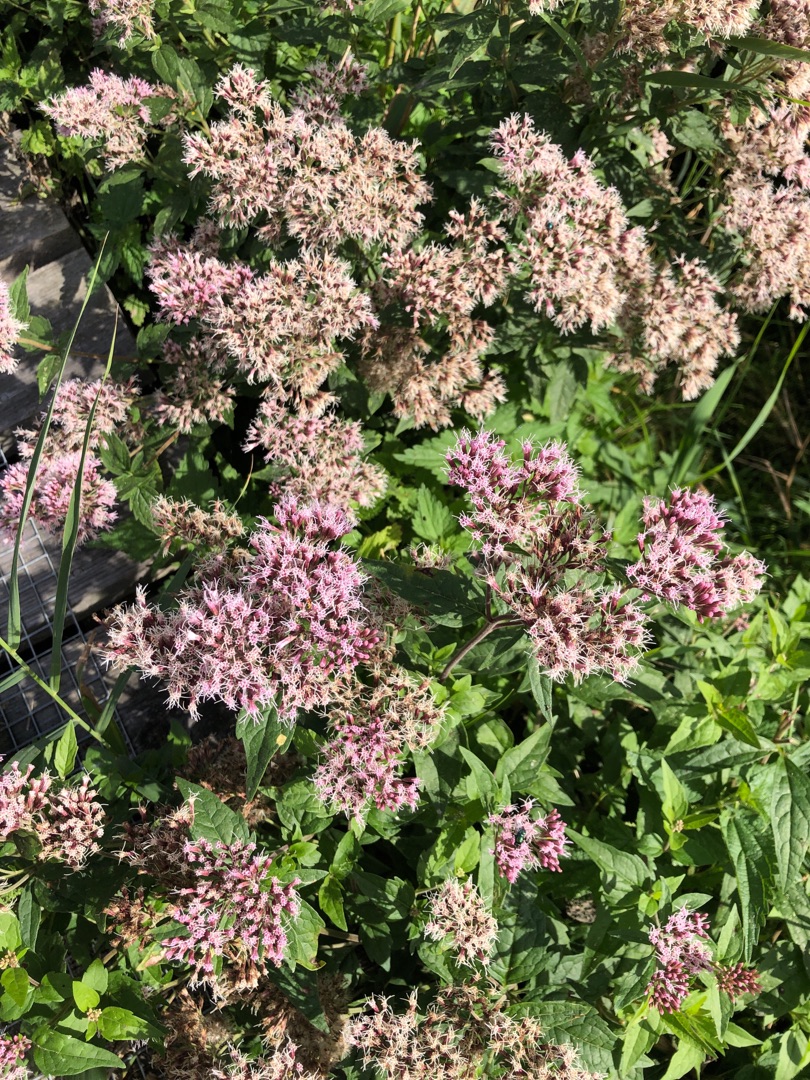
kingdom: Plantae
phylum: Tracheophyta
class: Magnoliopsida
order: Asterales
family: Asteraceae
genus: Eupatorium
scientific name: Eupatorium cannabinum
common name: Hjortetrøst
